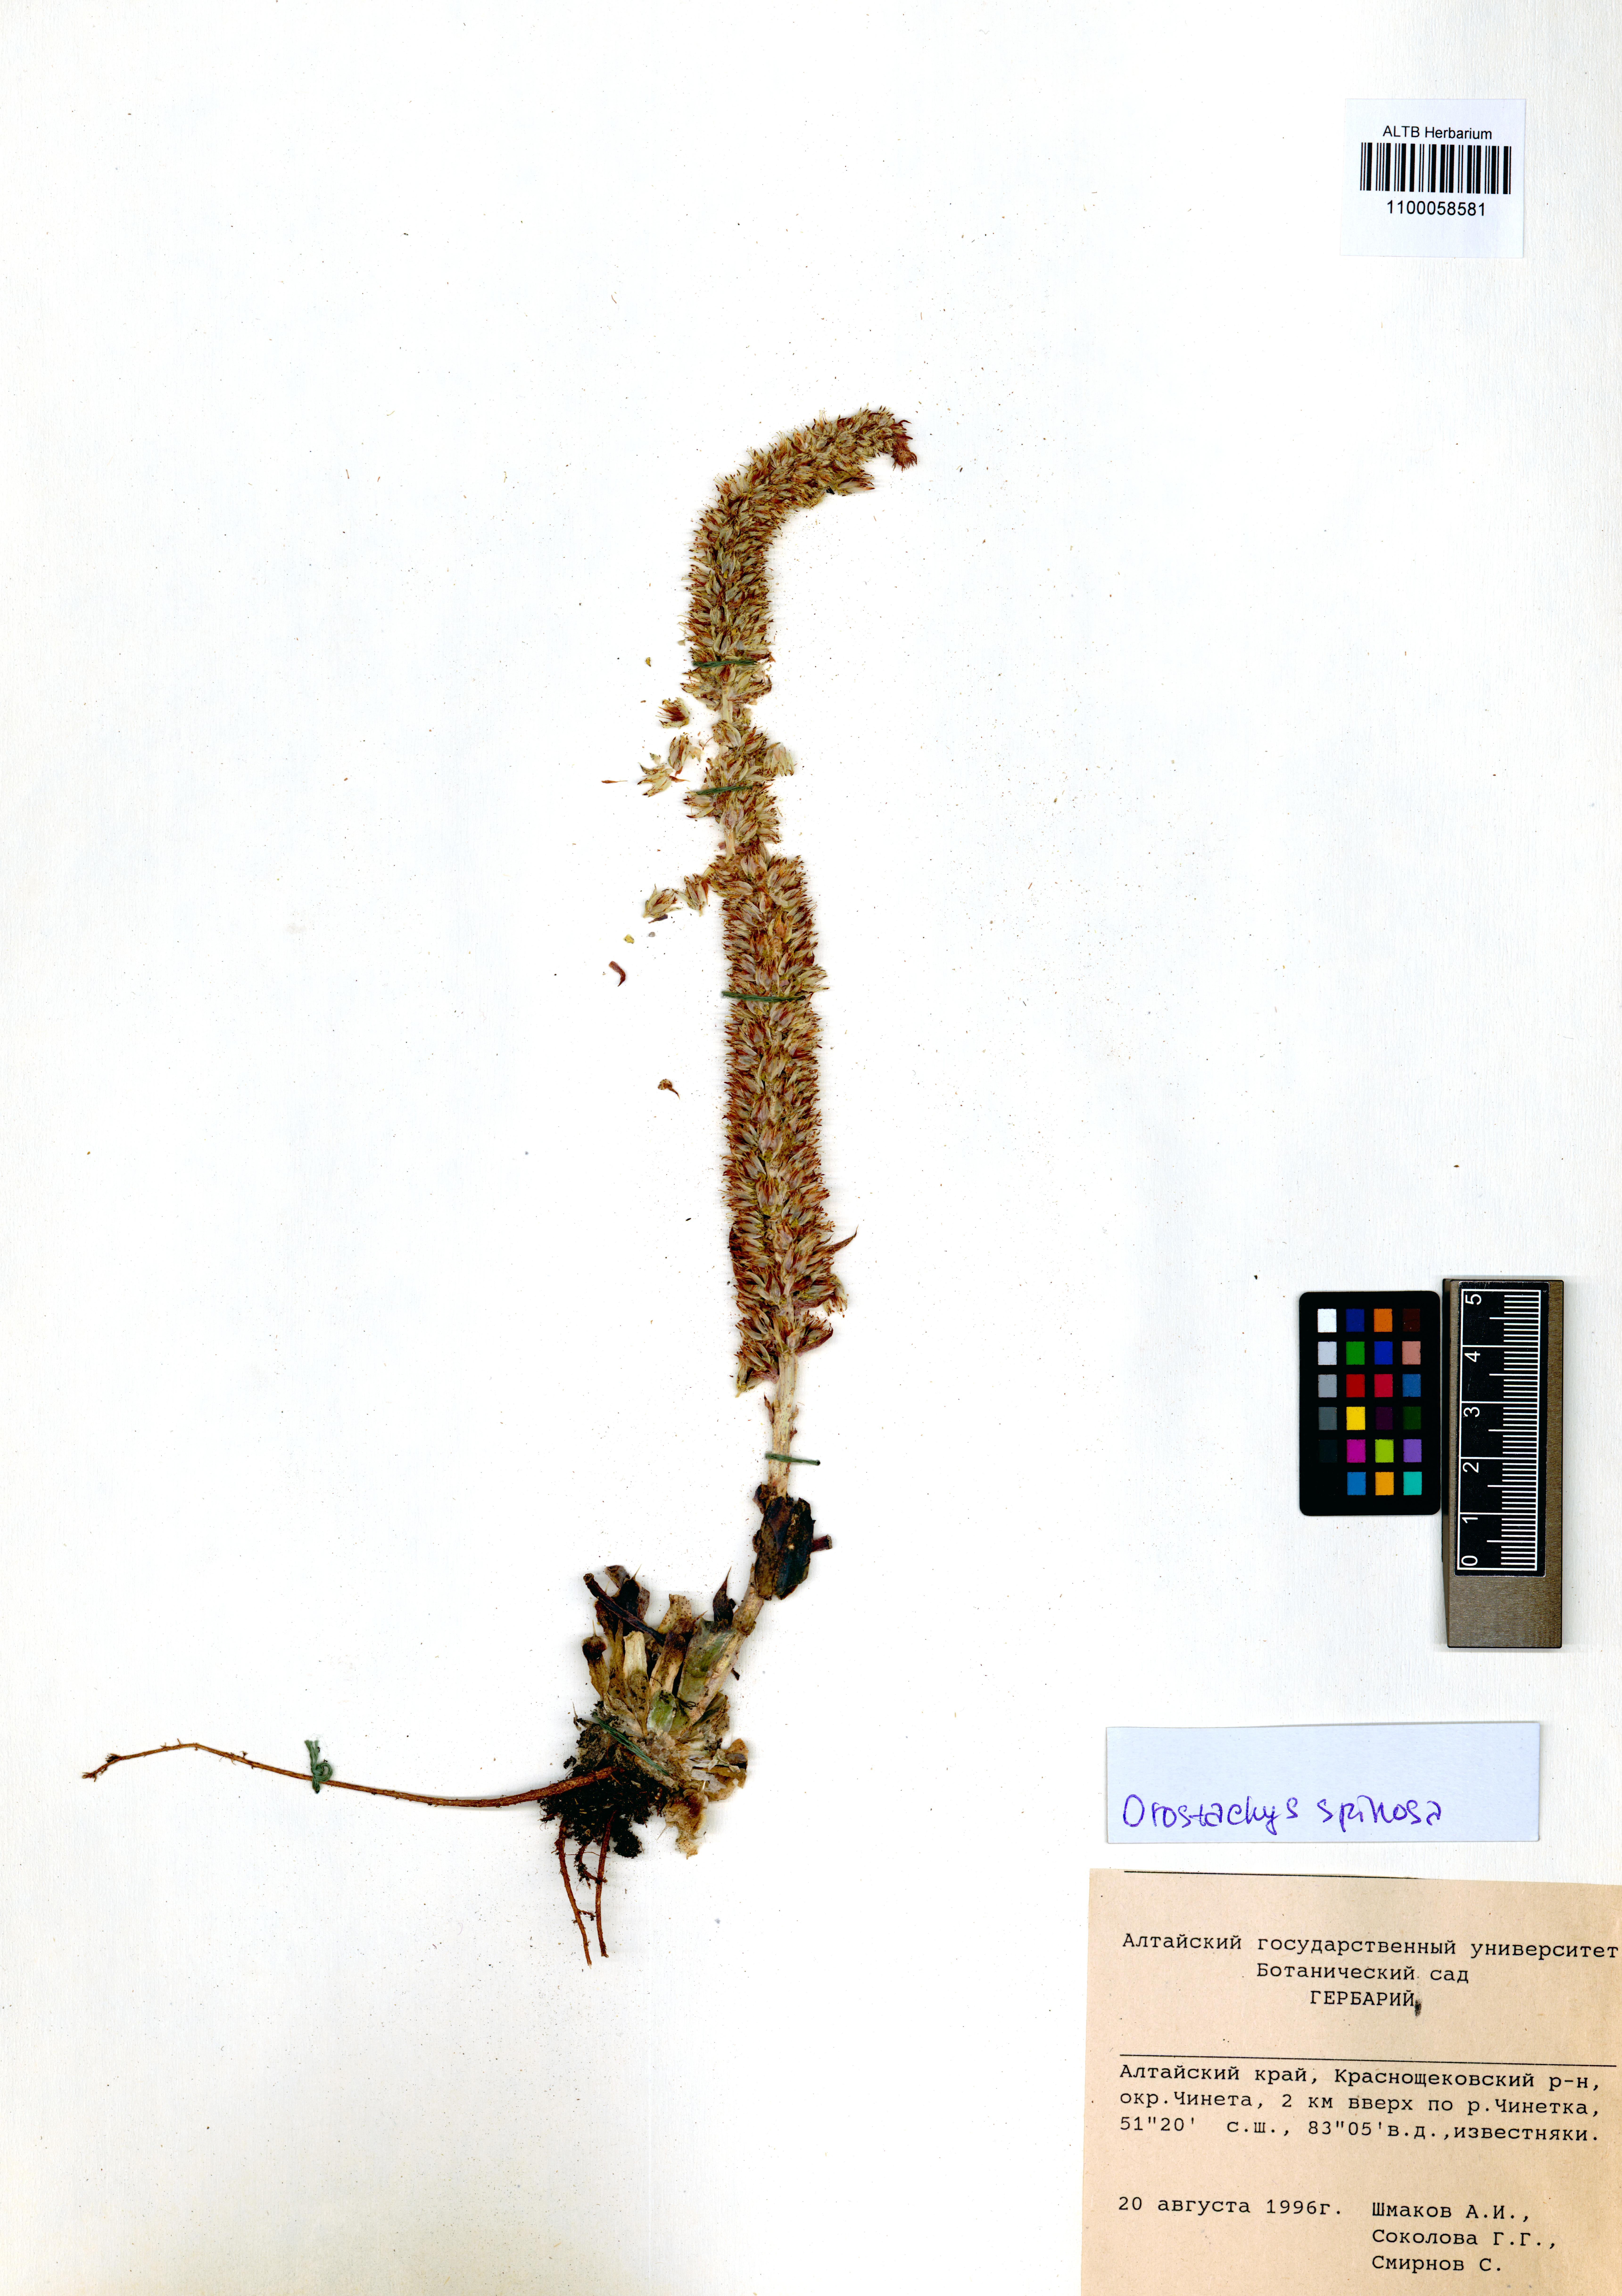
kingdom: Plantae
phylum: Tracheophyta
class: Magnoliopsida
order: Saxifragales
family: Crassulaceae
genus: Orostachys
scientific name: Orostachys spinosa
